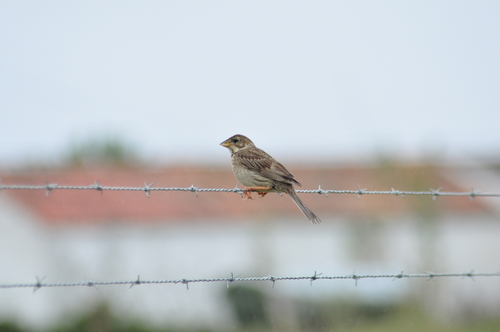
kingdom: Animalia
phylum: Chordata
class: Aves
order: Passeriformes
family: Emberizidae
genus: Emberiza
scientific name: Emberiza calandra
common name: Corn bunting
